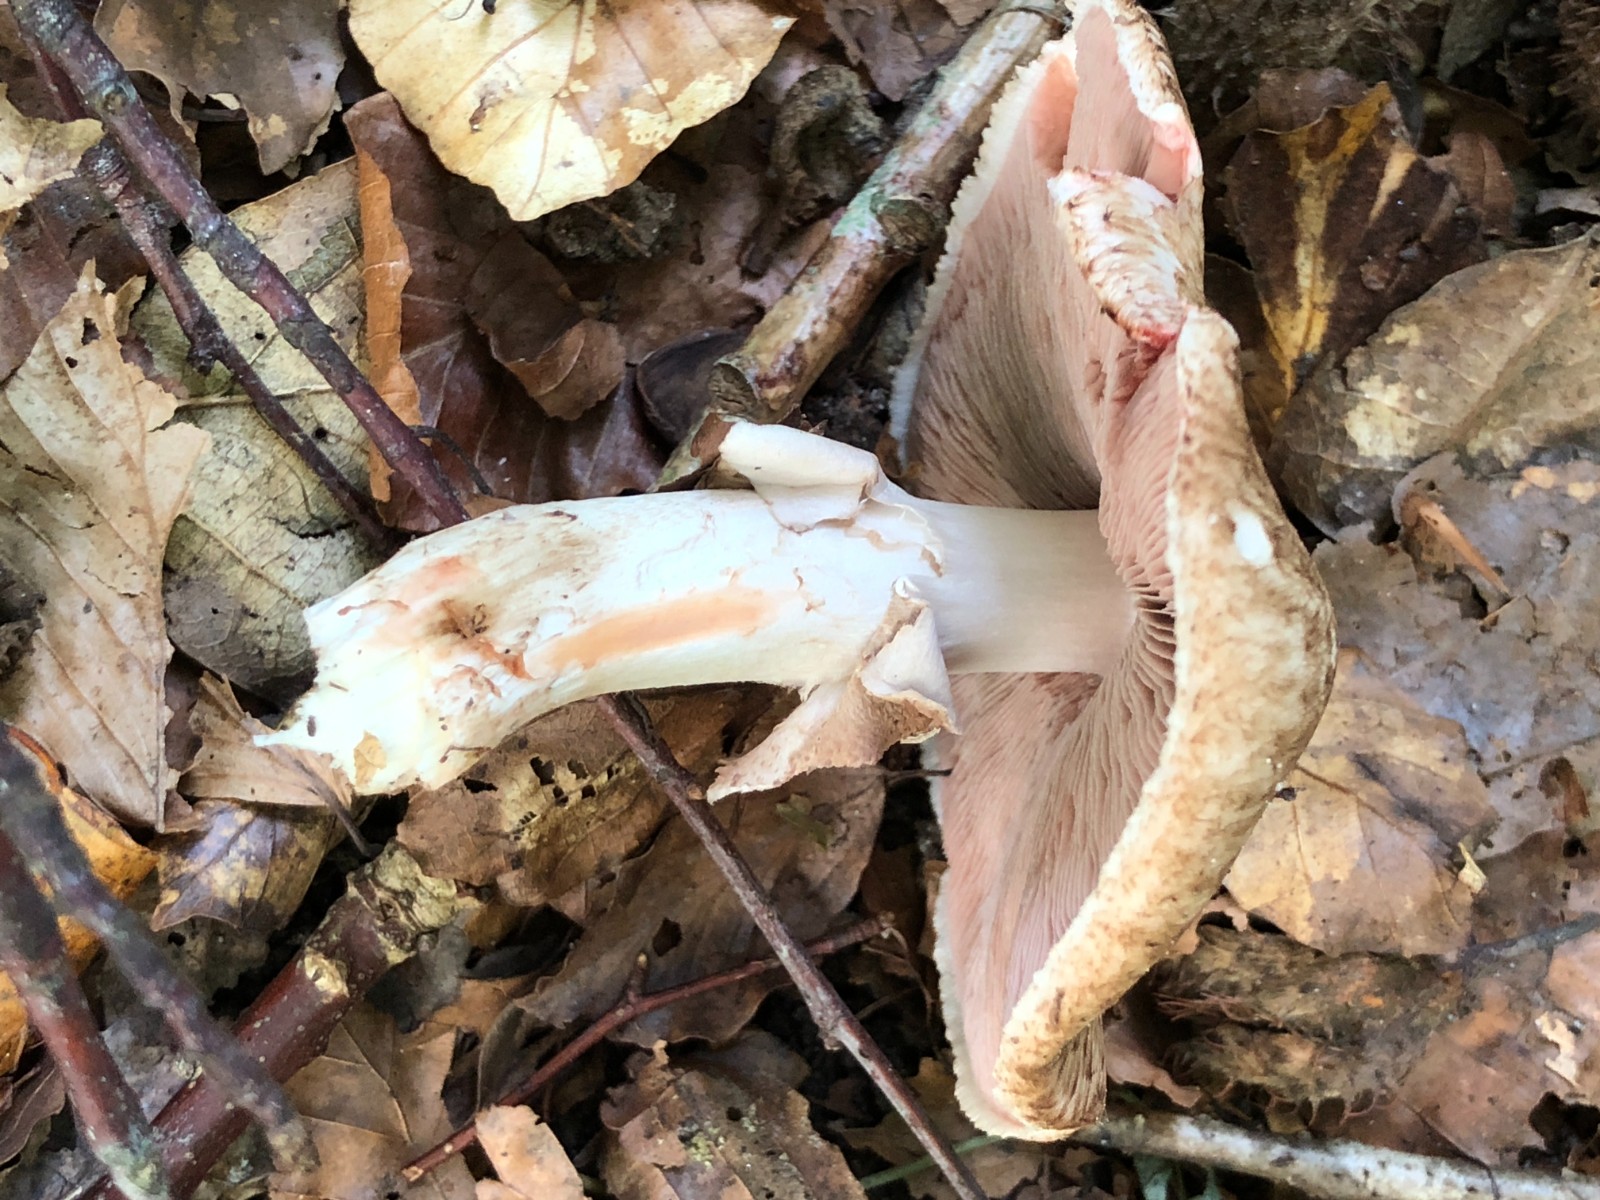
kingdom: Fungi
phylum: Basidiomycota
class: Agaricomycetes
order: Agaricales
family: Agaricaceae
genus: Agaricus
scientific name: Agaricus langei
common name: stor blod-champignon
